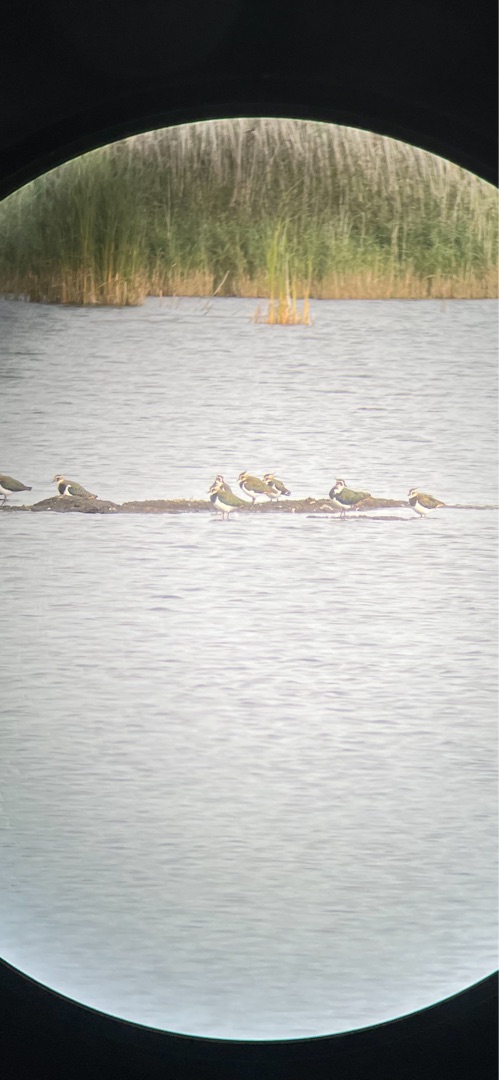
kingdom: Animalia
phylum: Chordata
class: Aves
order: Charadriiformes
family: Charadriidae
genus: Vanellus
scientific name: Vanellus vanellus
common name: Vibe
